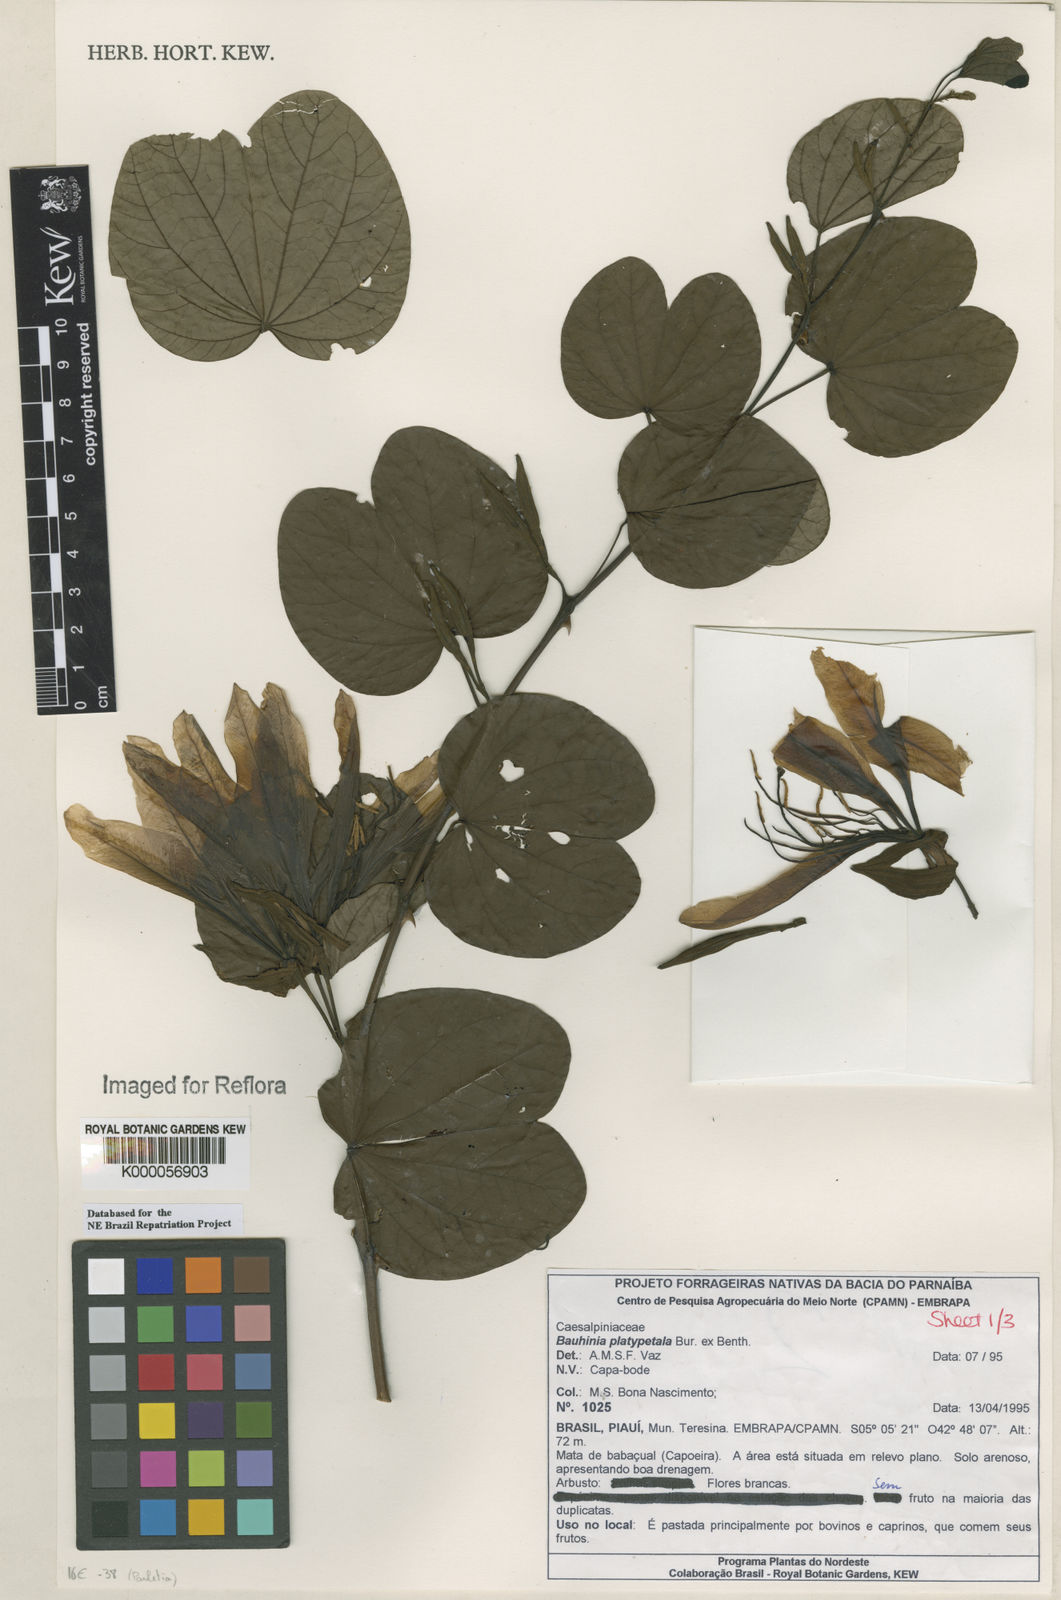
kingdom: Plantae
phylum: Tracheophyta
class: Magnoliopsida
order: Fabales
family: Fabaceae
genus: Bauhinia
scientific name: Bauhinia platypetala
